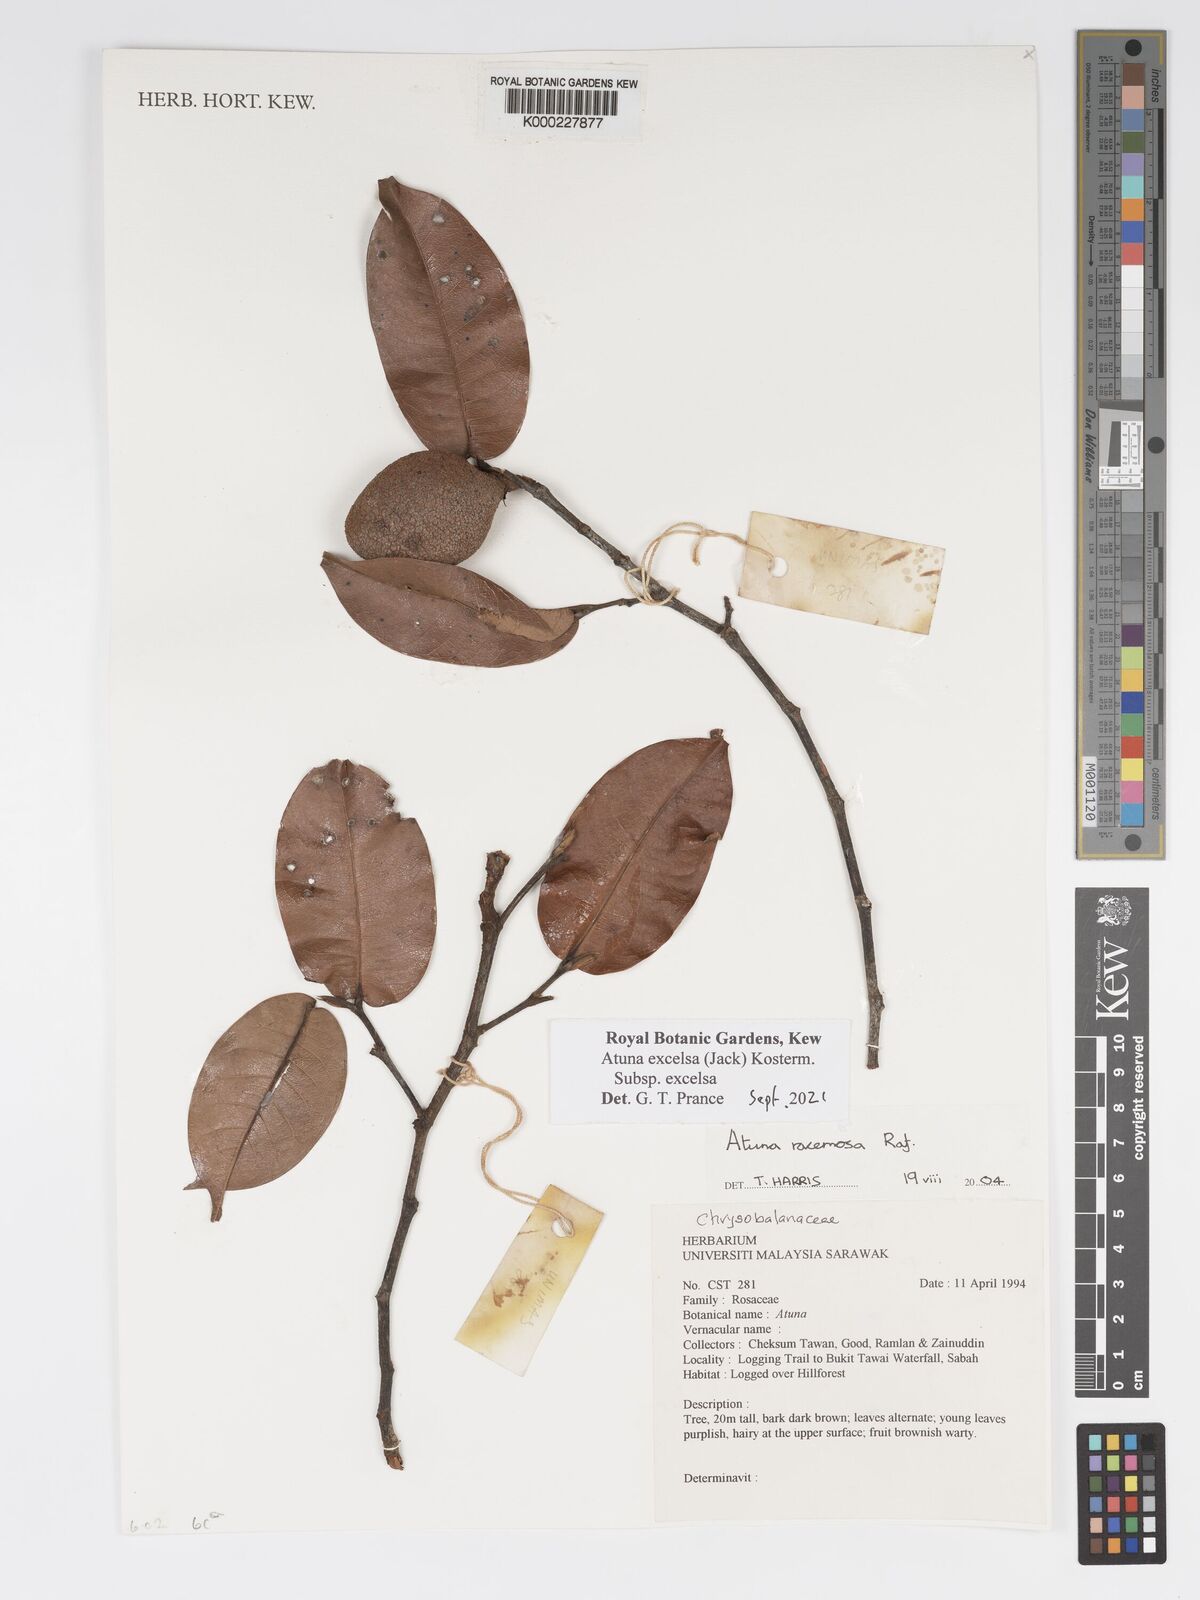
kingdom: Plantae
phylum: Tracheophyta
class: Magnoliopsida
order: Malpighiales
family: Chrysobalanaceae
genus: Atuna
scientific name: Atuna excelsa
